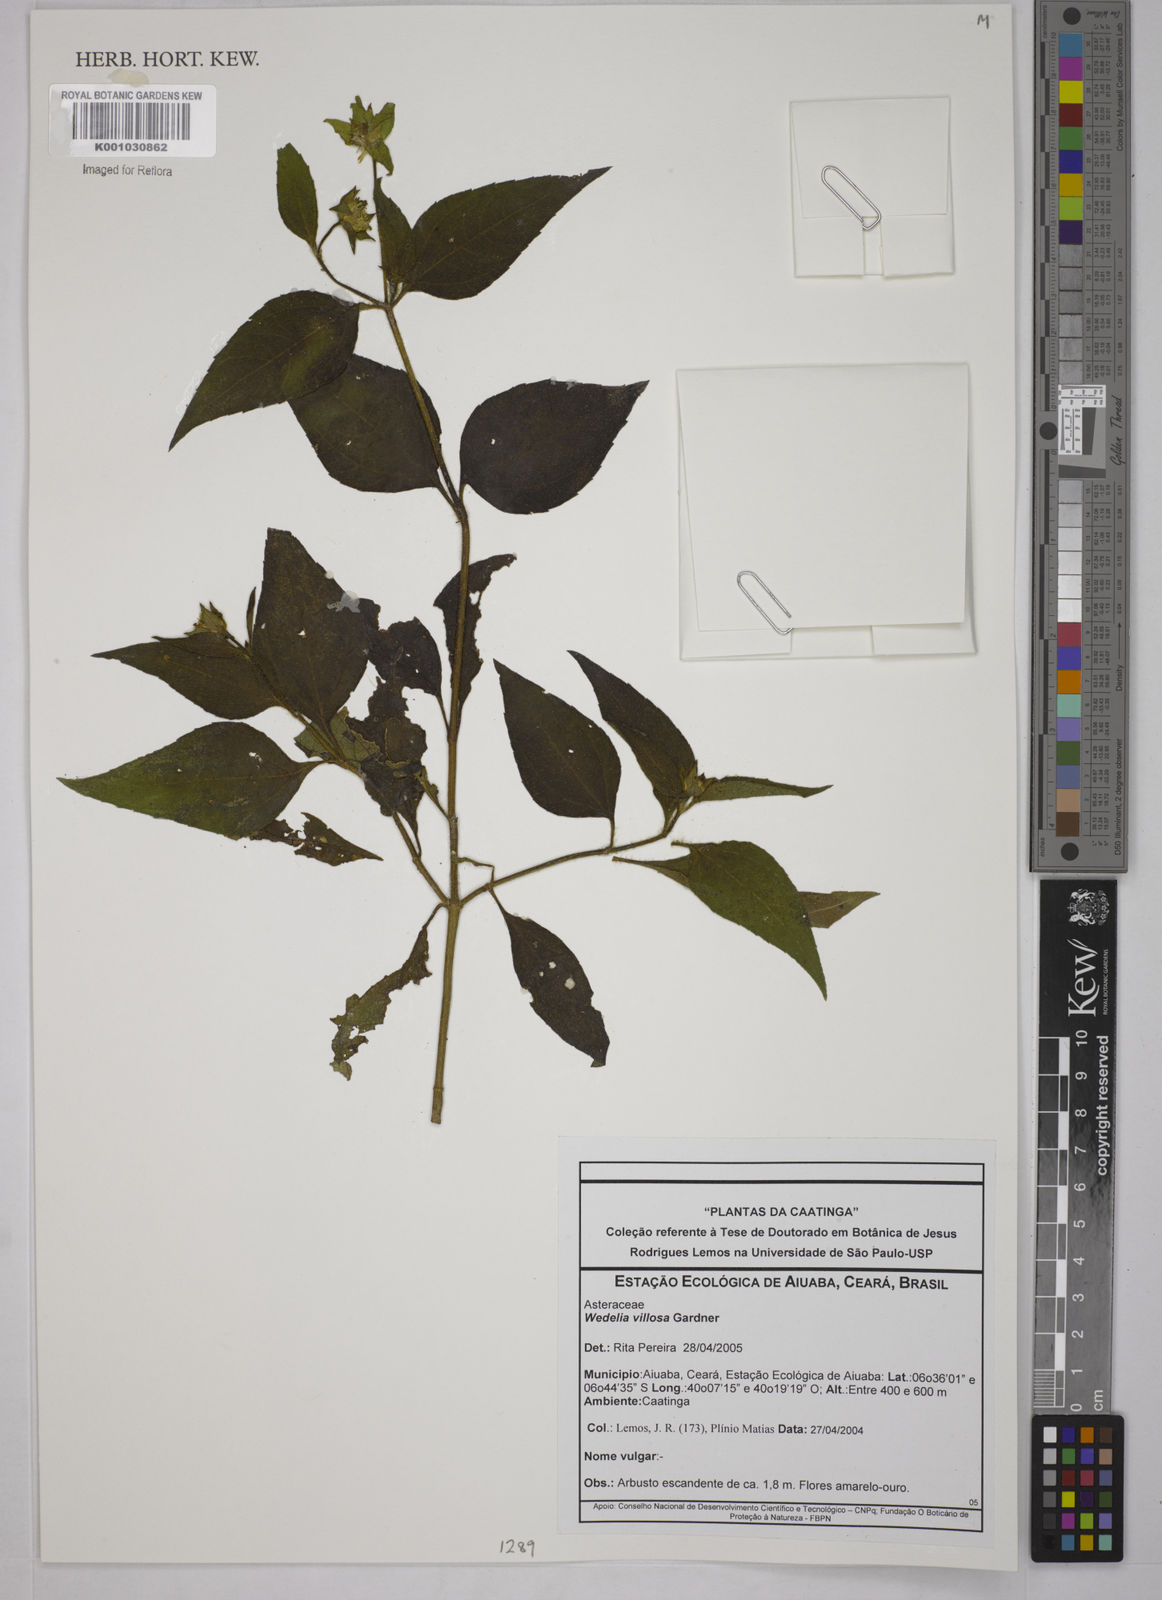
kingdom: Plantae
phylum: Tracheophyta
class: Magnoliopsida
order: Asterales
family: Asteraceae
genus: Wedelia
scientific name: Wedelia villosa
